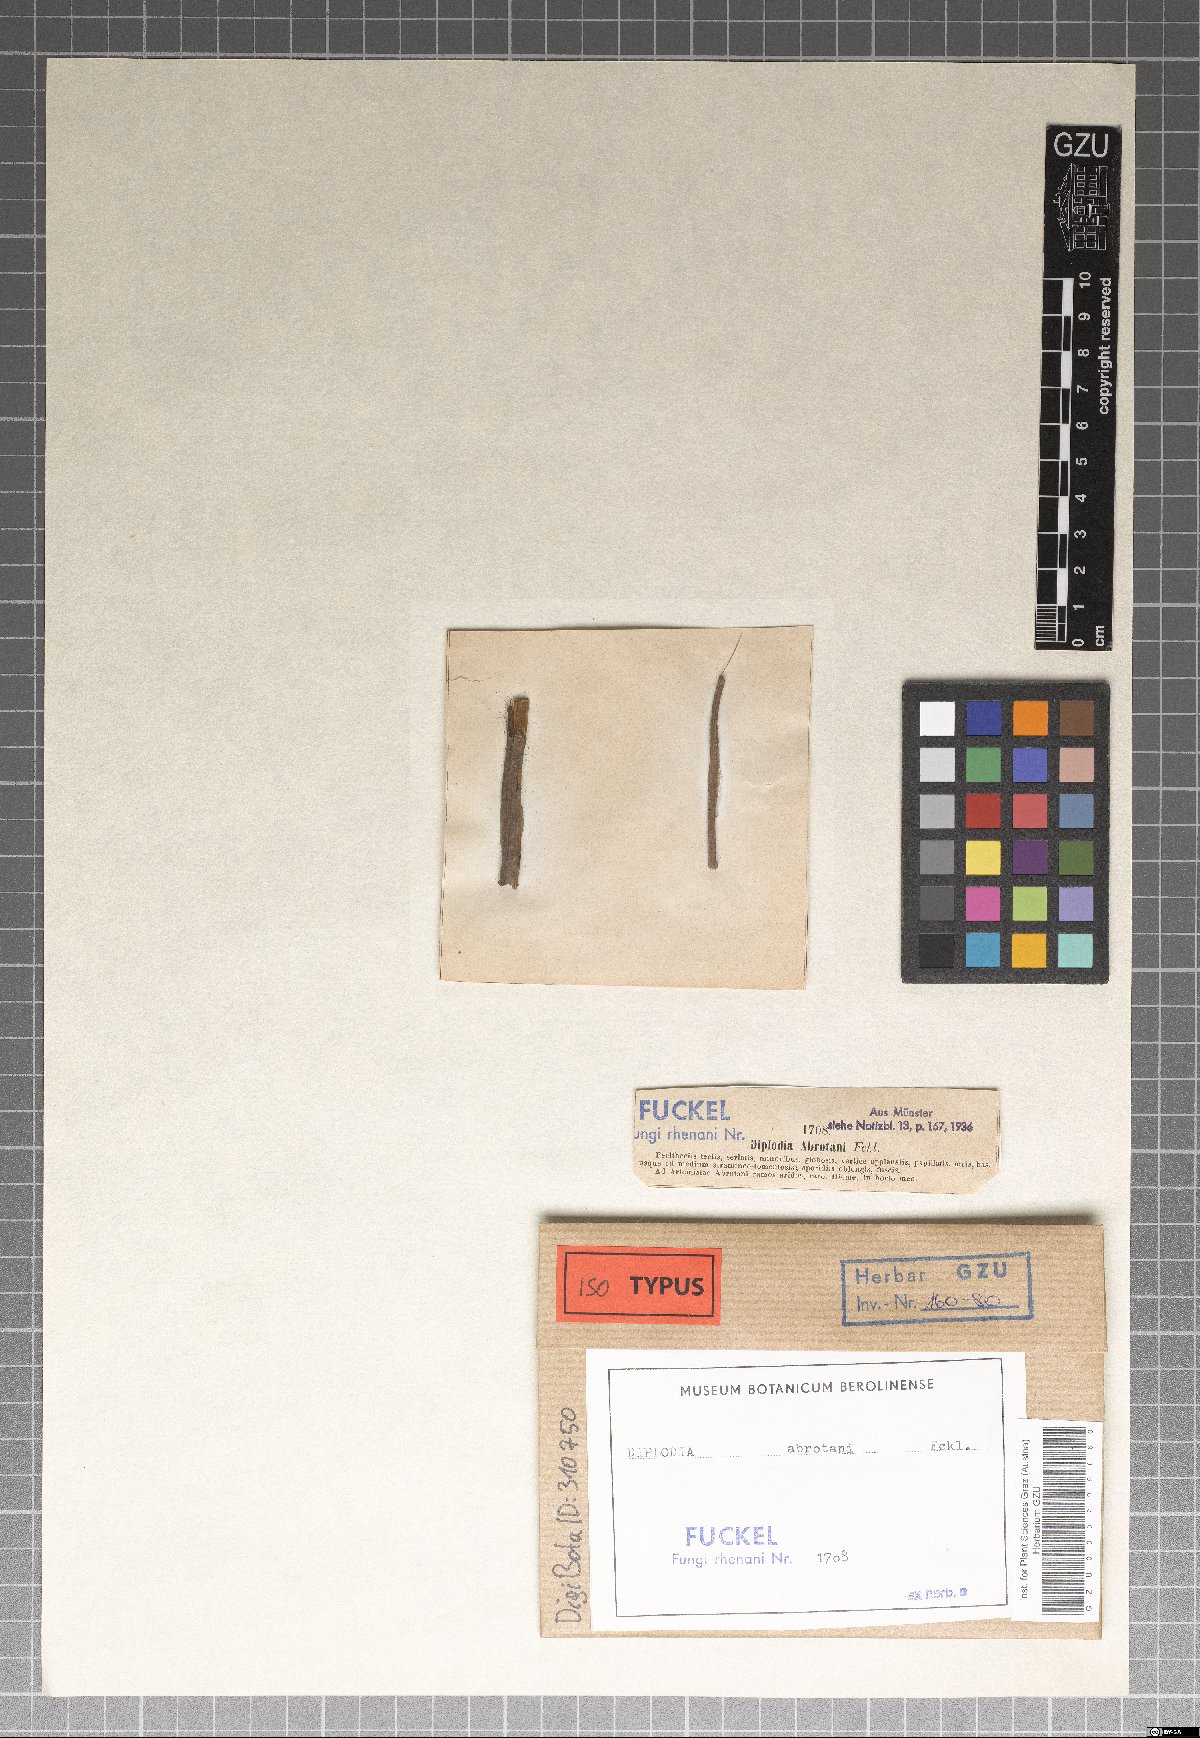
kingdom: Fungi
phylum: Ascomycota
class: Dothideomycetes
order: Botryosphaeriales
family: Botryosphaeriaceae
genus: Diplodia
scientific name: Diplodia abrotani
